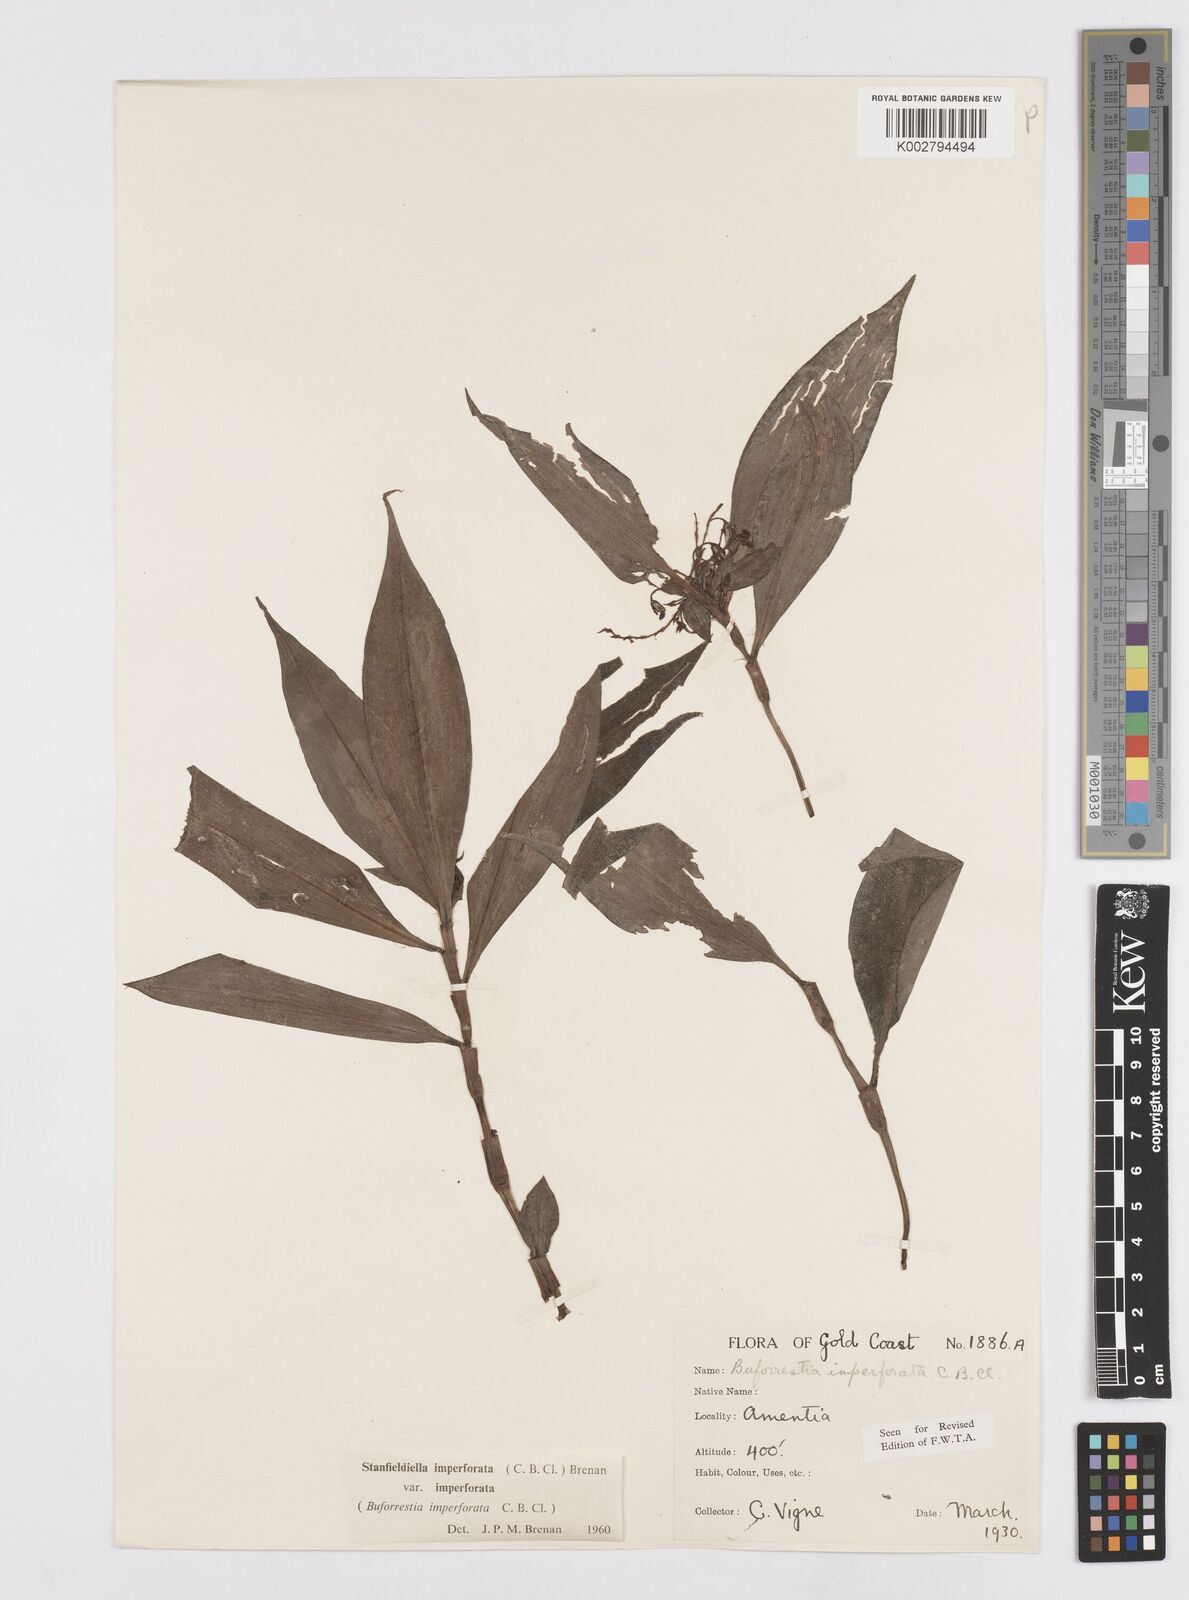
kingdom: Plantae
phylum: Tracheophyta
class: Liliopsida
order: Commelinales
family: Commelinaceae
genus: Stanfieldiella
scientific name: Stanfieldiella imperforata
